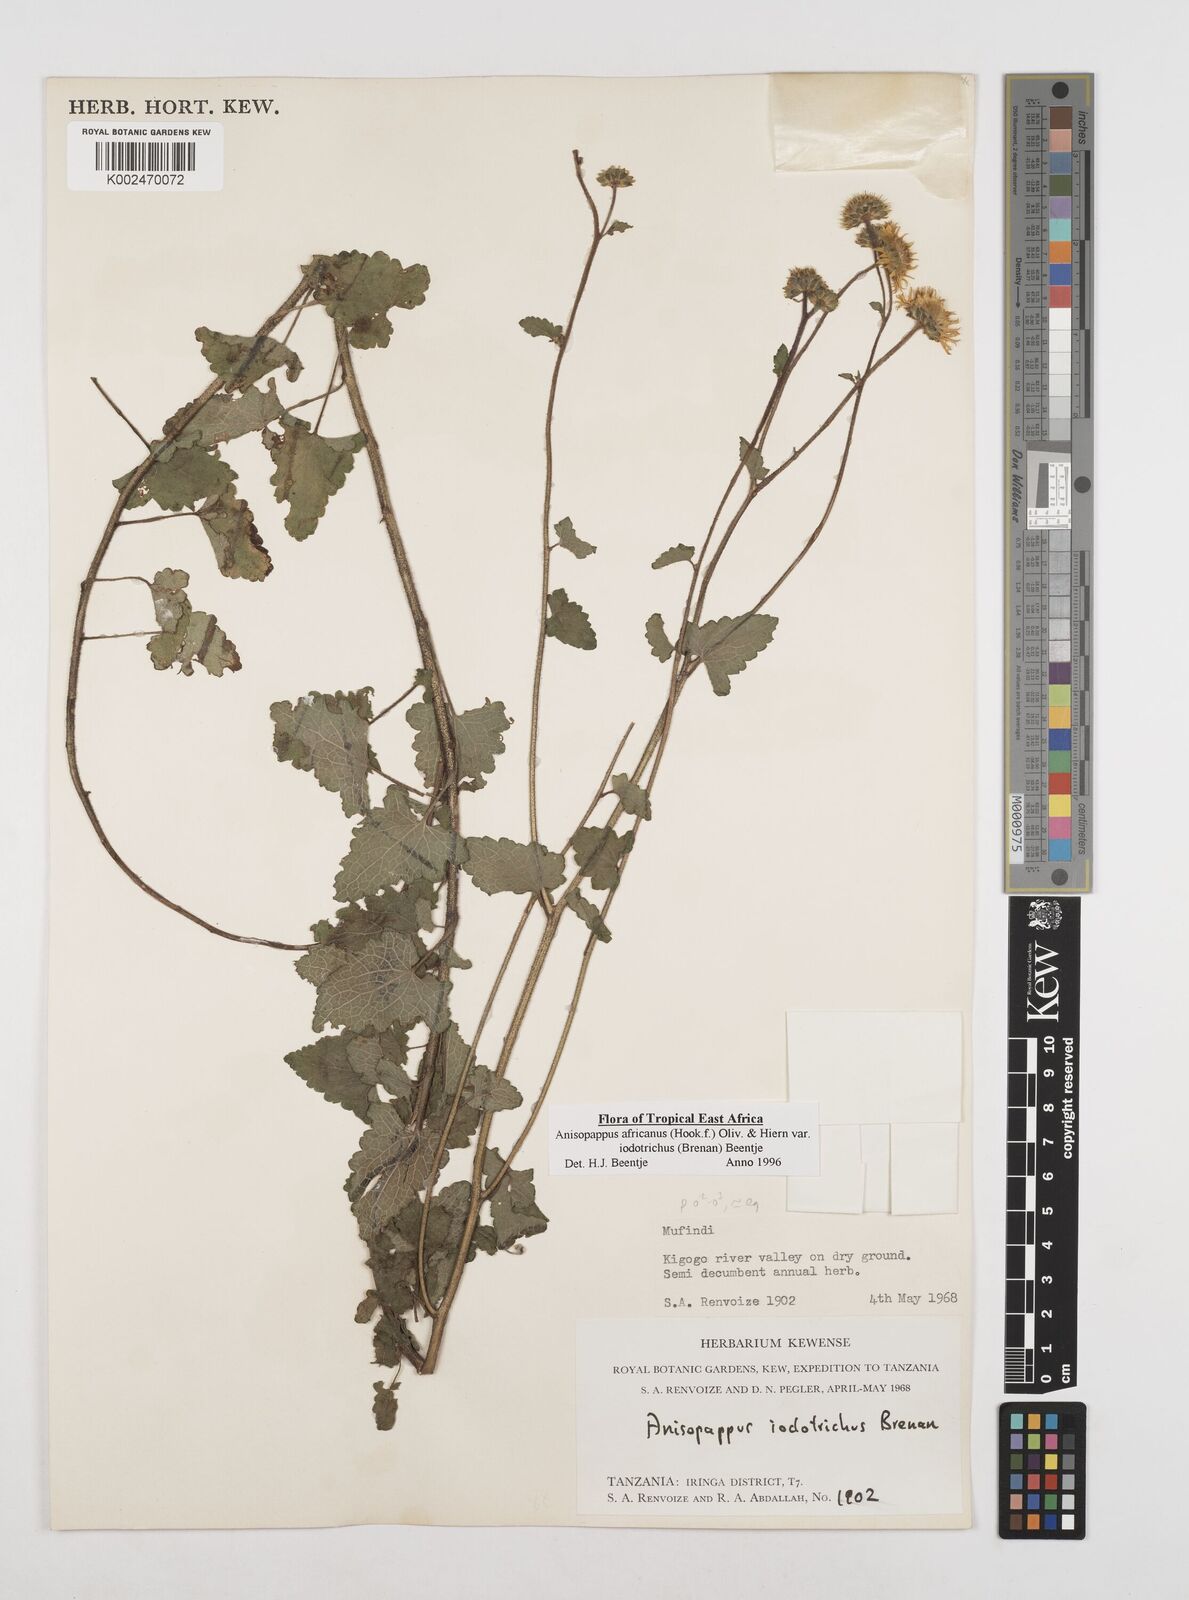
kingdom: Plantae
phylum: Tracheophyta
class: Magnoliopsida
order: Asterales
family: Asteraceae
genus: Anisopappus
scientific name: Anisopappus africanus
